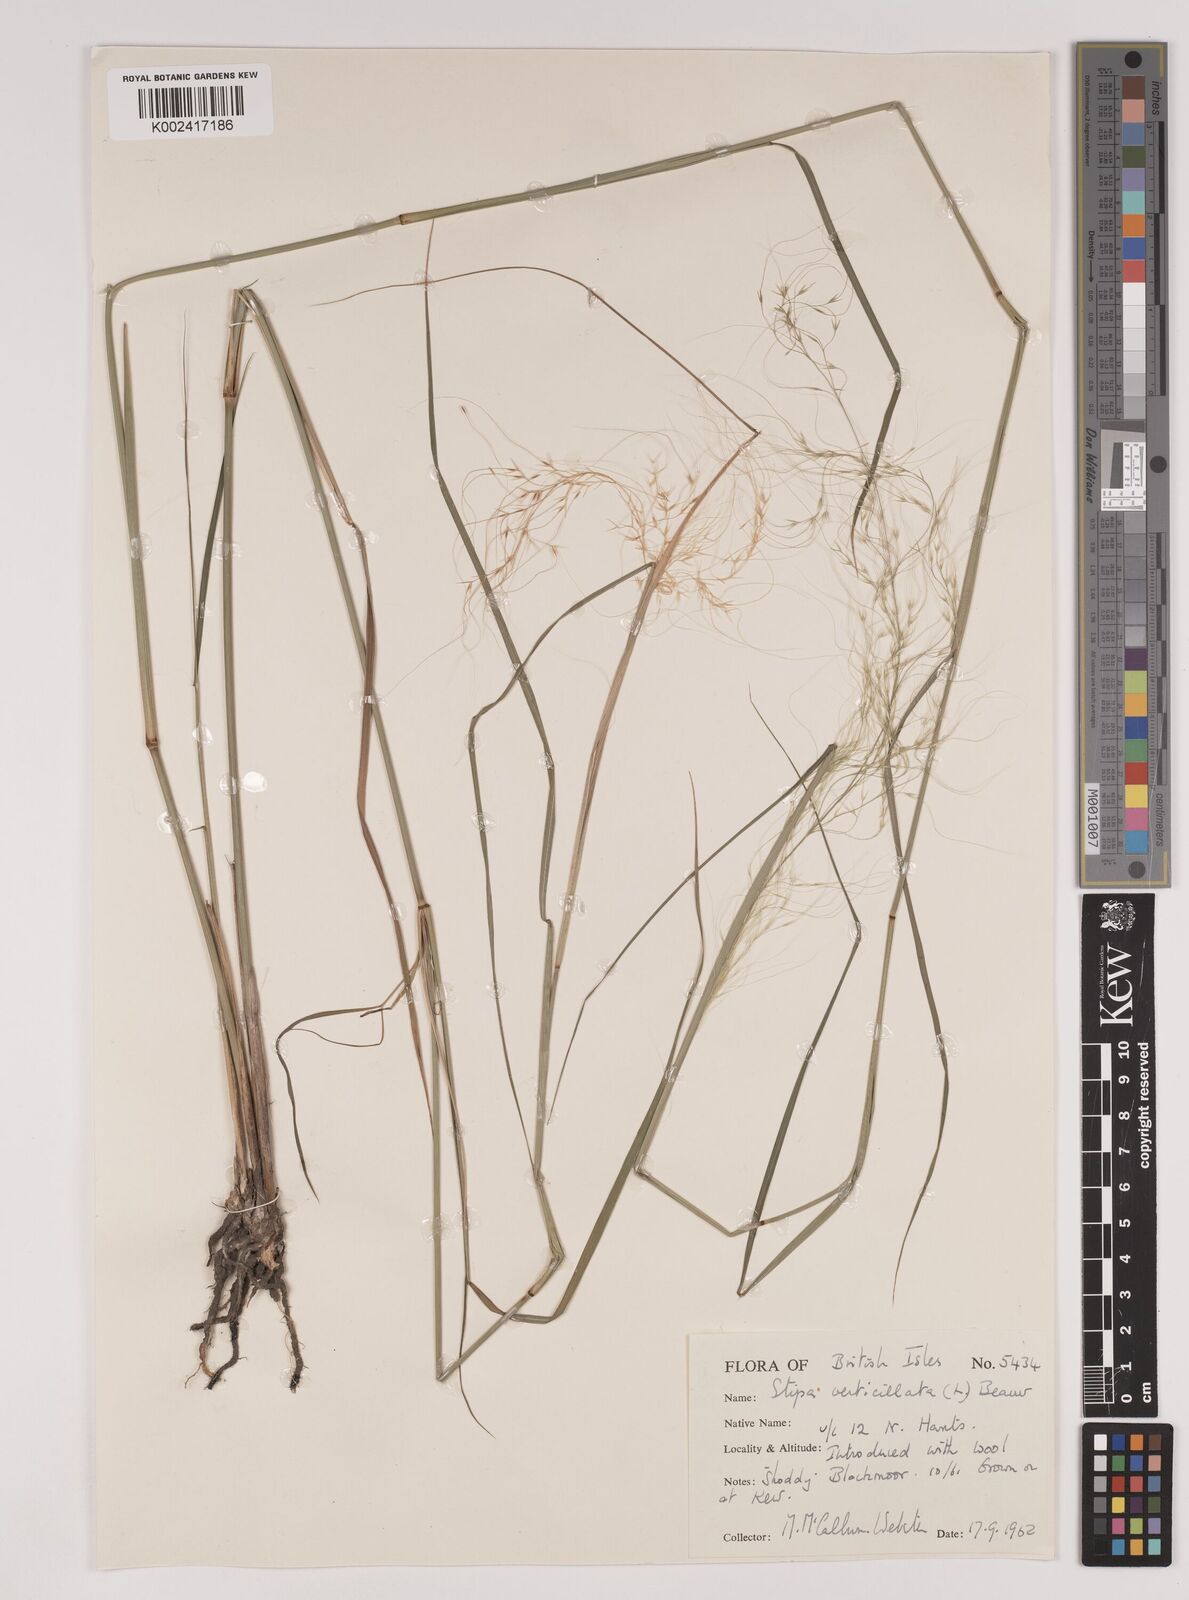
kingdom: Plantae
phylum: Tracheophyta
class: Liliopsida
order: Poales
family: Poaceae
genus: Austrostipa
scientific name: Austrostipa verticillata
